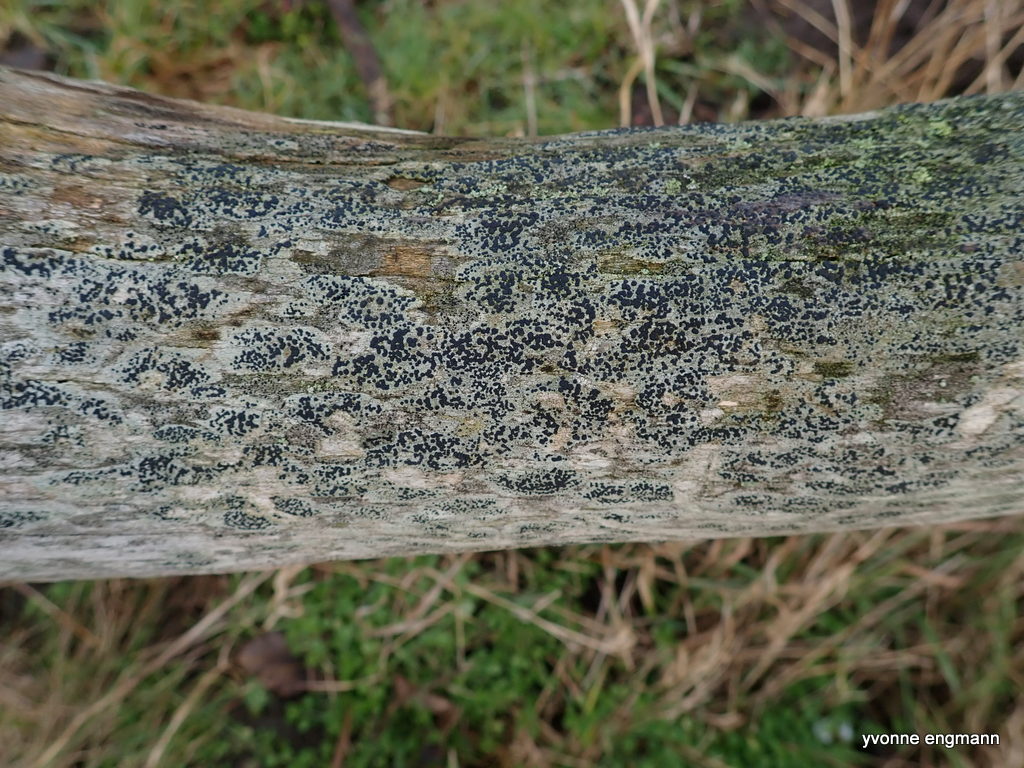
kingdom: Fungi
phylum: Ascomycota
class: Lecanoromycetes
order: Lecanorales
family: Lecanoraceae
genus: Lecidella
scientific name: Lecidella elaeochroma
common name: grågrøn skivelav
